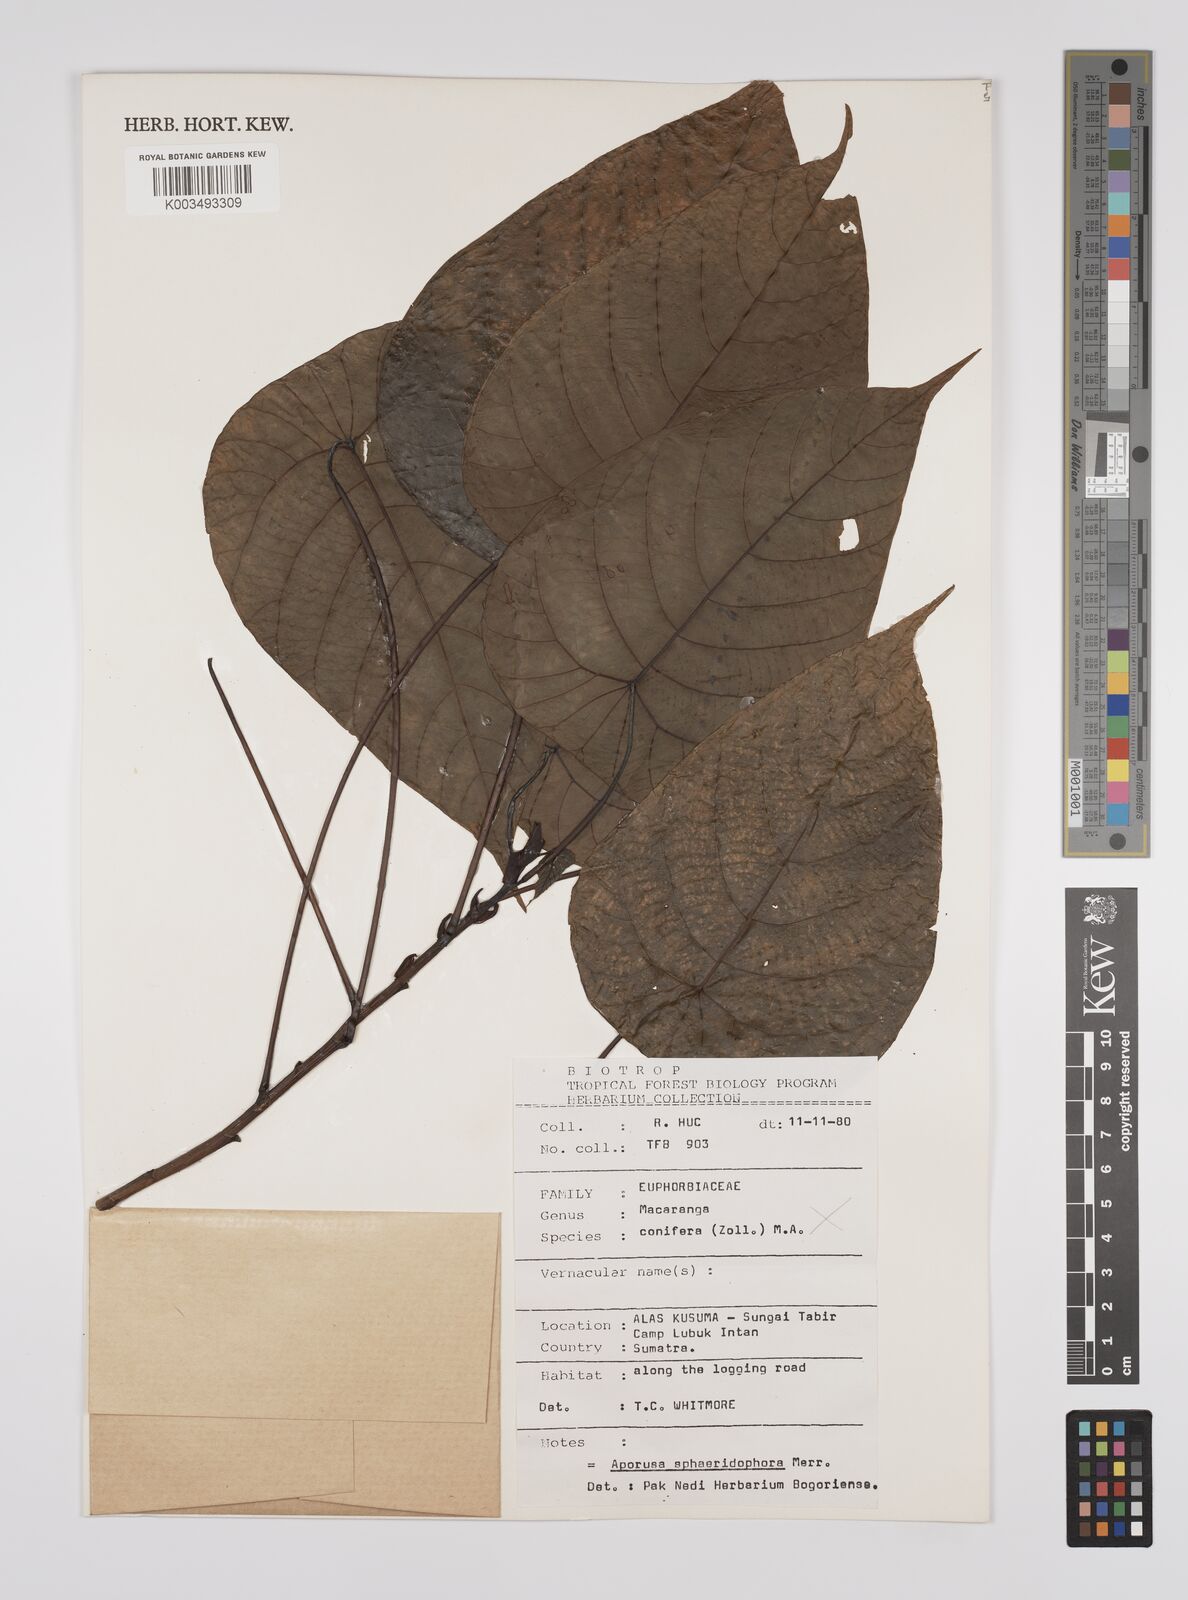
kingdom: Plantae
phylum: Tracheophyta
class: Magnoliopsida
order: Malpighiales
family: Euphorbiaceae
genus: Macaranga
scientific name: Macaranga conifera
